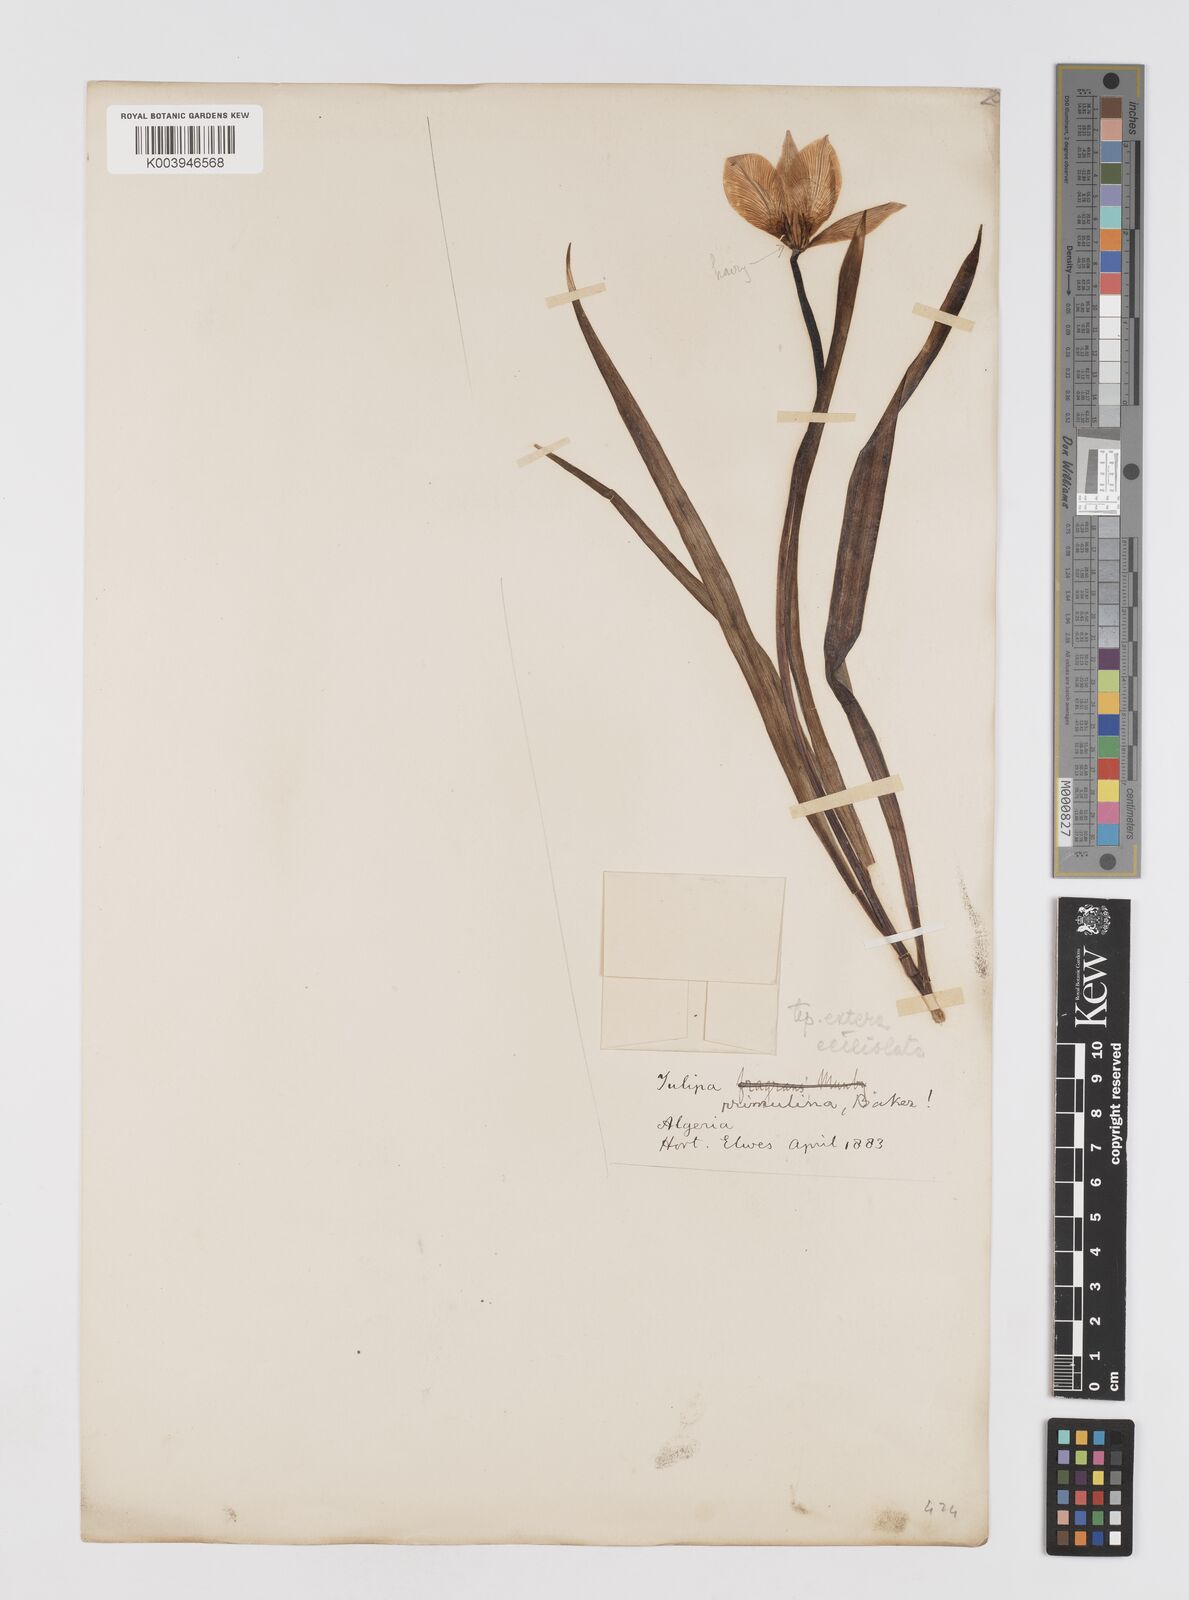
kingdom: Plantae
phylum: Tracheophyta
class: Liliopsida
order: Liliales
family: Liliaceae
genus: Tulipa
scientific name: Tulipa sylvestris
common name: Wild tulip
